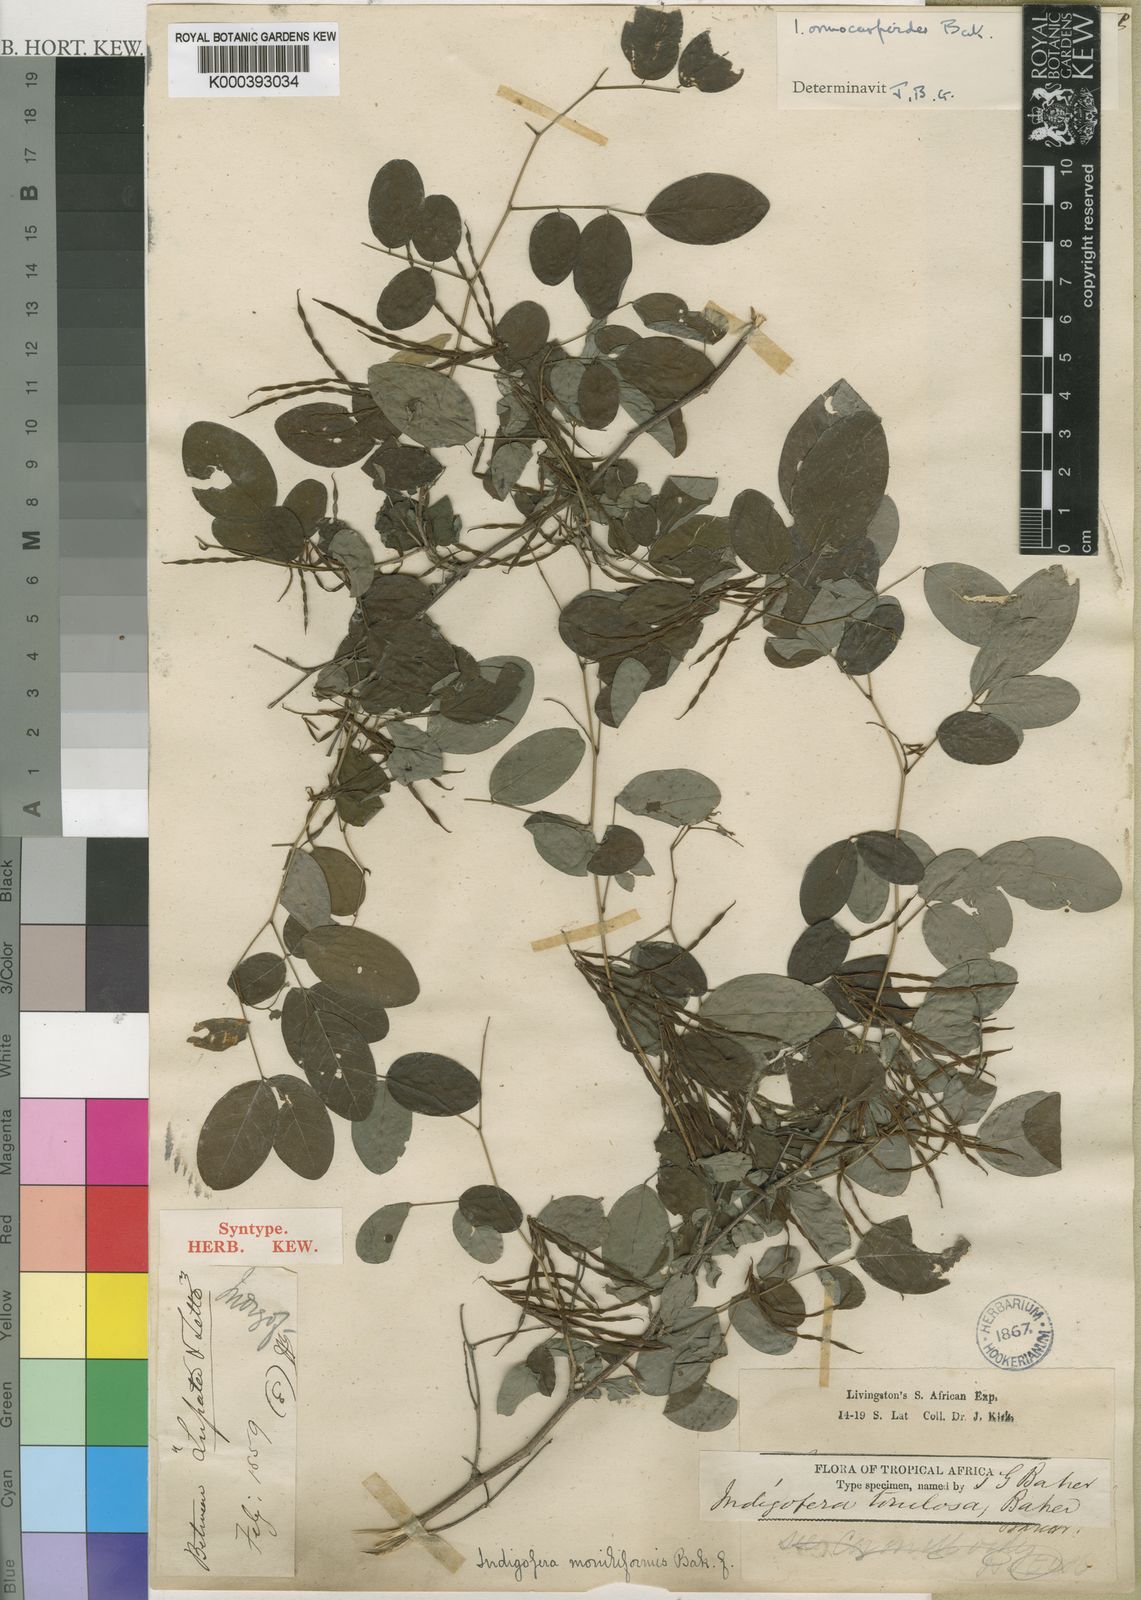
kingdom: Plantae
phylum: Tracheophyta
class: Magnoliopsida
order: Fabales
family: Fabaceae
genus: Indigofera
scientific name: Indigofera ormocarpoides
